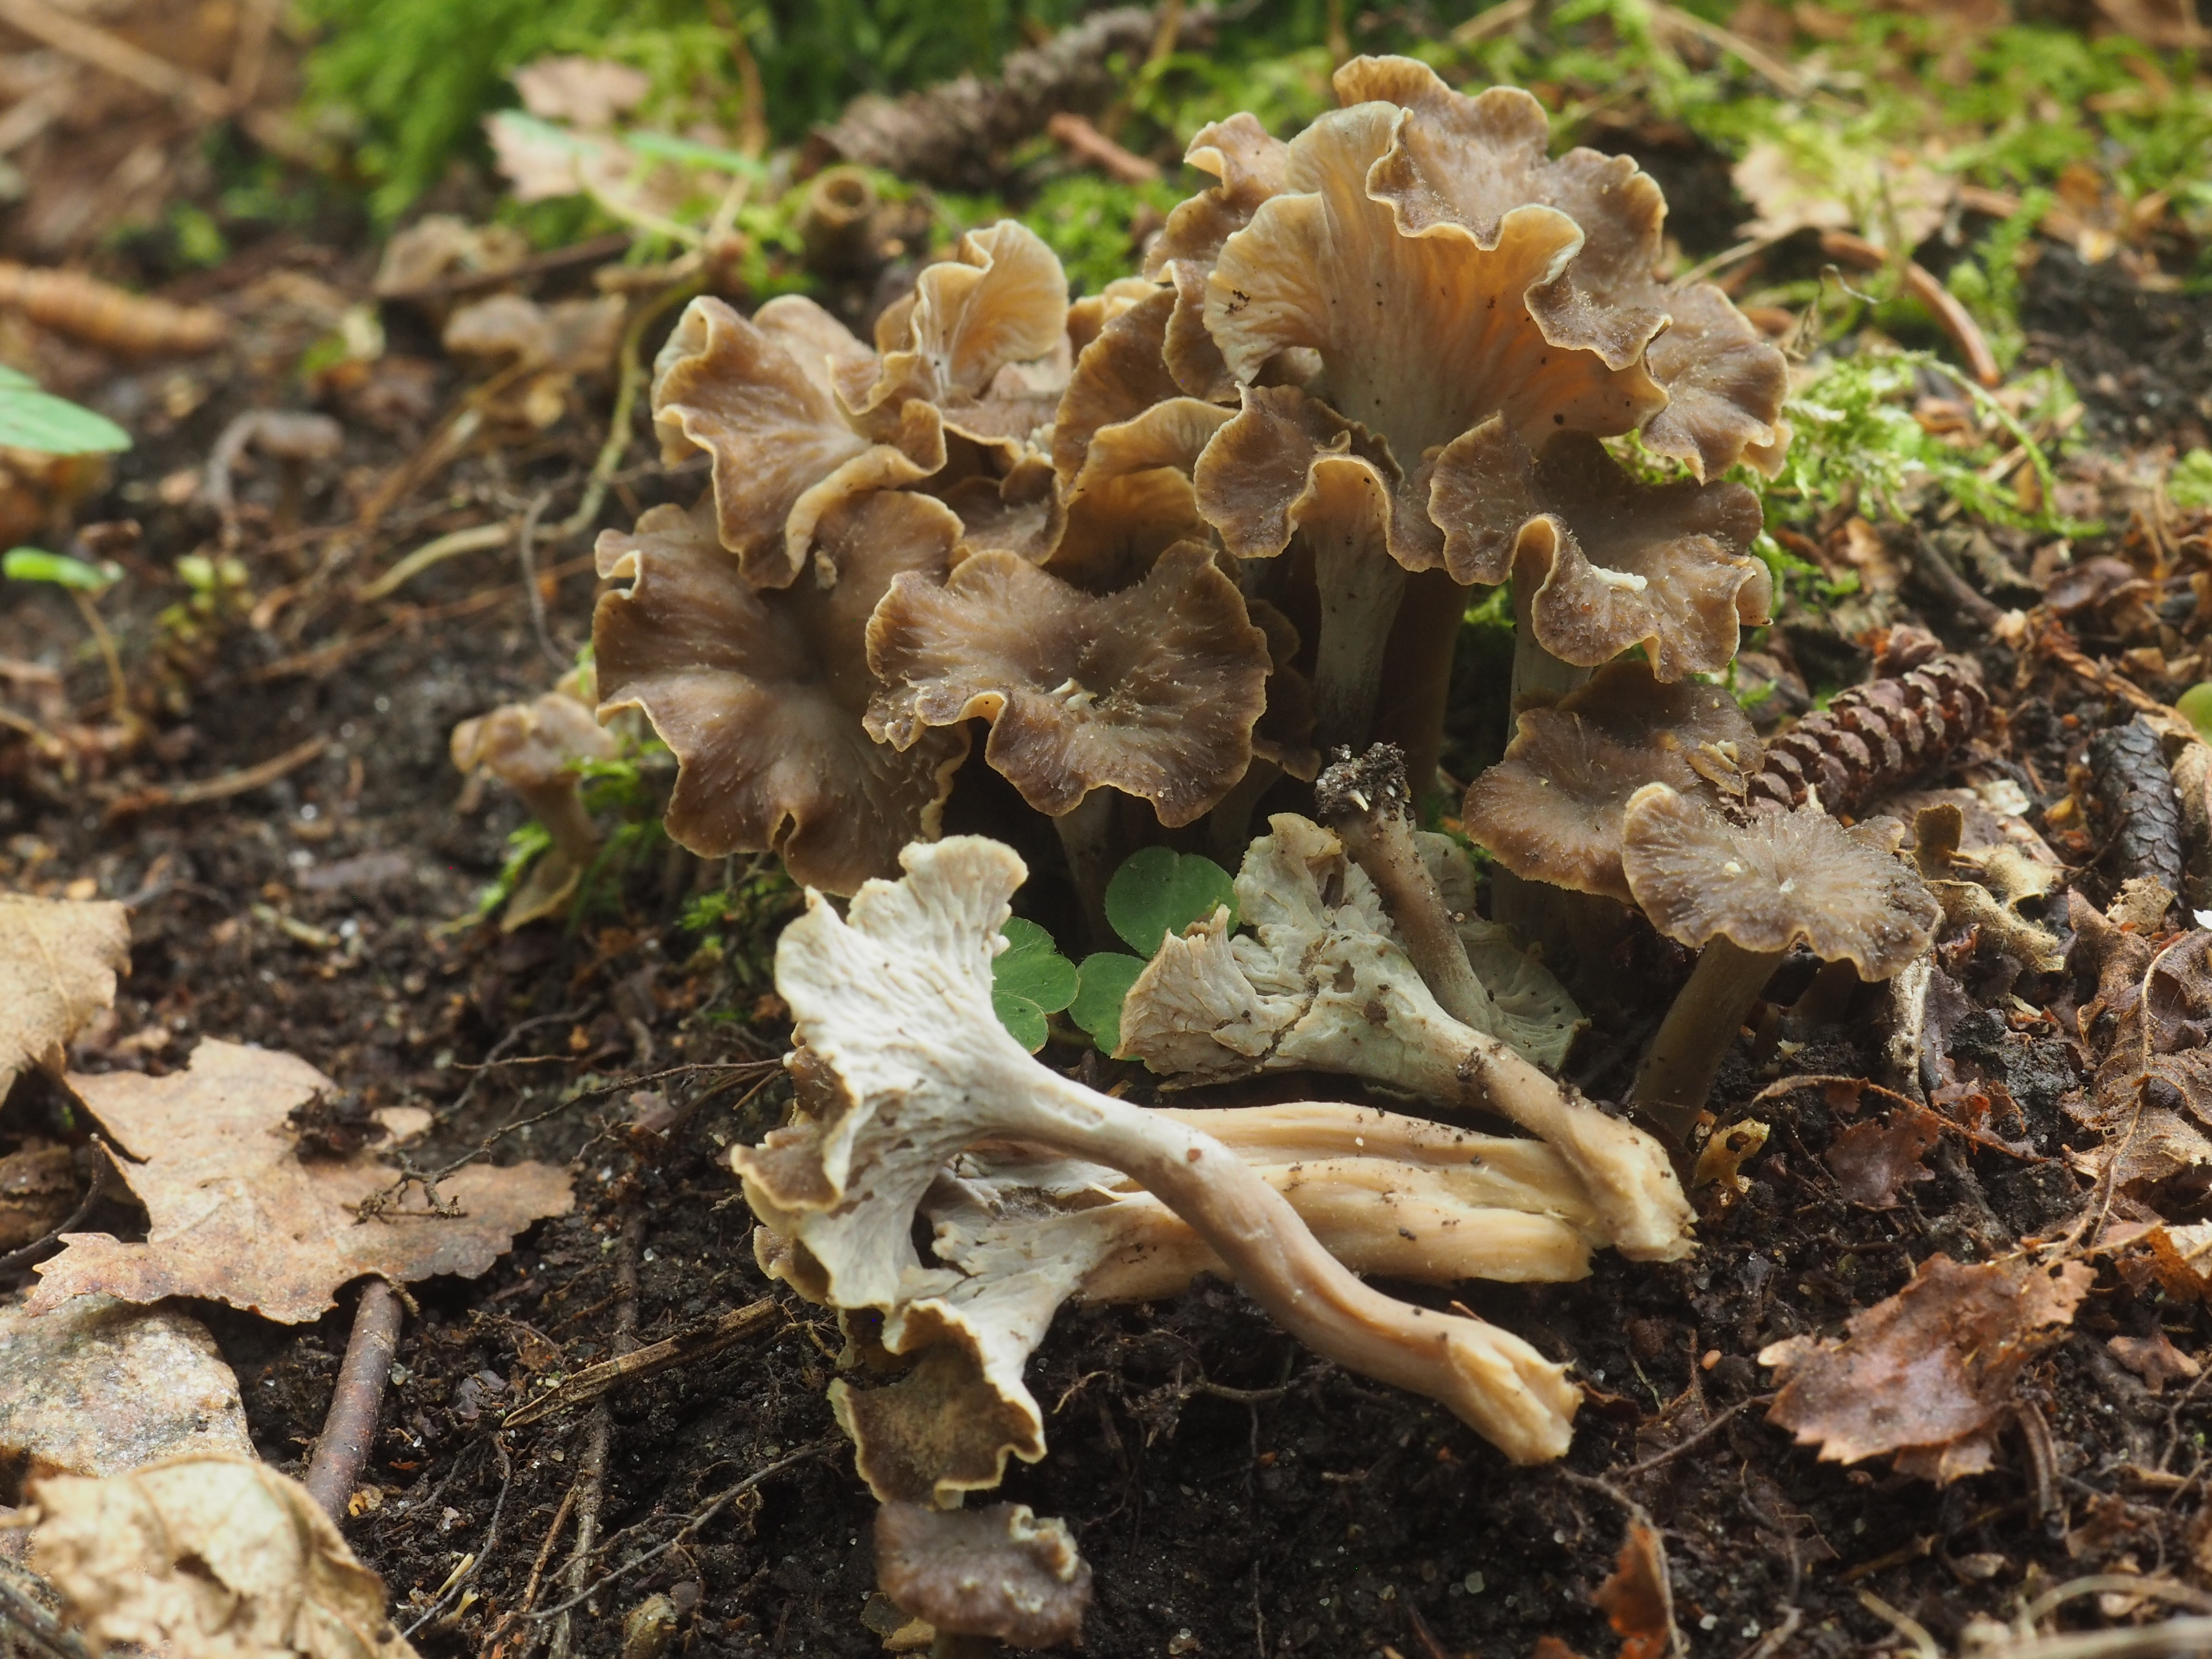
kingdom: Fungi
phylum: Basidiomycota
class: Agaricomycetes
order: Cantharellales
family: Hydnaceae
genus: Craterellus
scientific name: Craterellus undulatus
